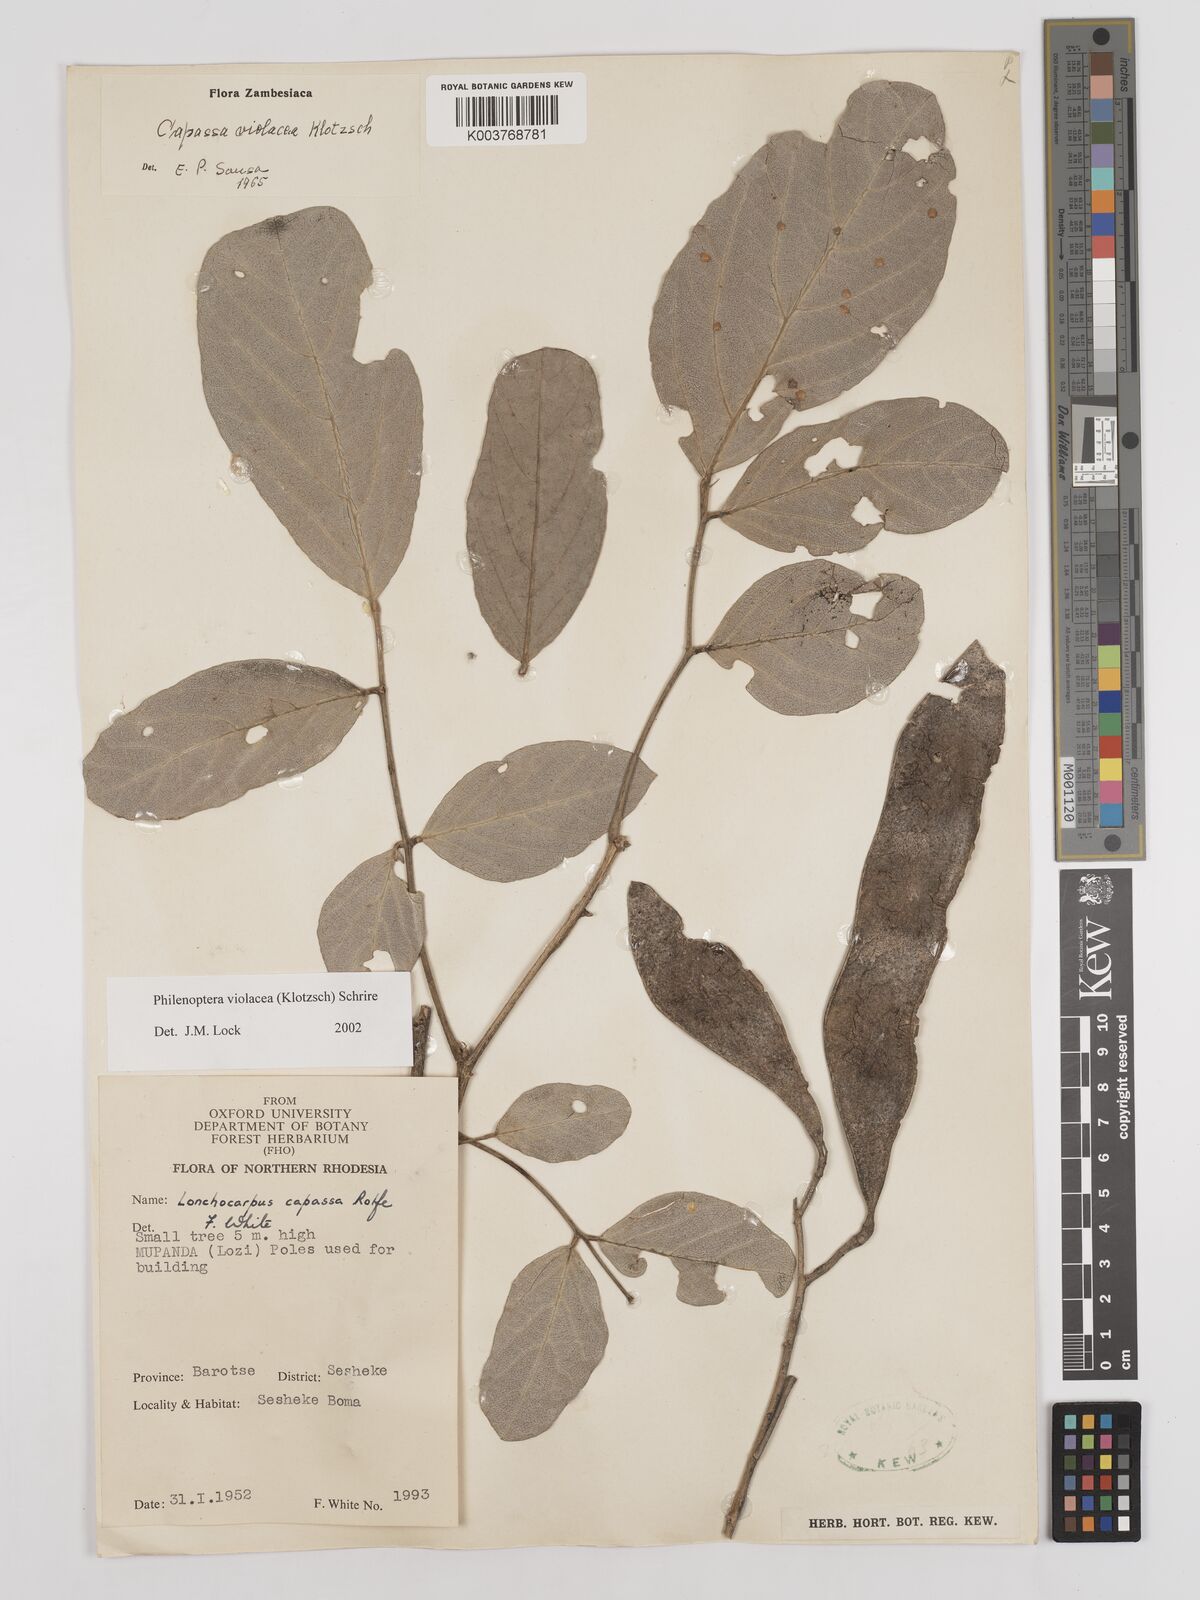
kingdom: Plantae
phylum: Tracheophyta
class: Magnoliopsida
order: Fabales
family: Fabaceae
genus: Philenoptera
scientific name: Philenoptera violacea
